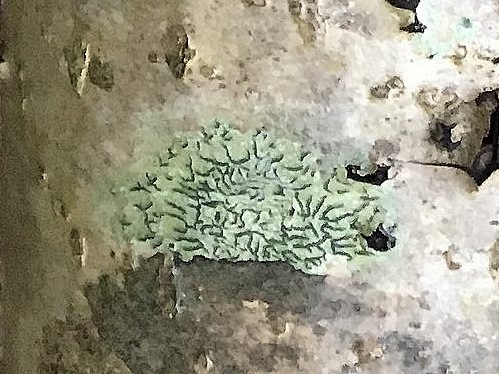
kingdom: Fungi
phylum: Ascomycota
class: Lecanoromycetes
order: Ostropales
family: Graphidaceae
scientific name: Graphidaceae
